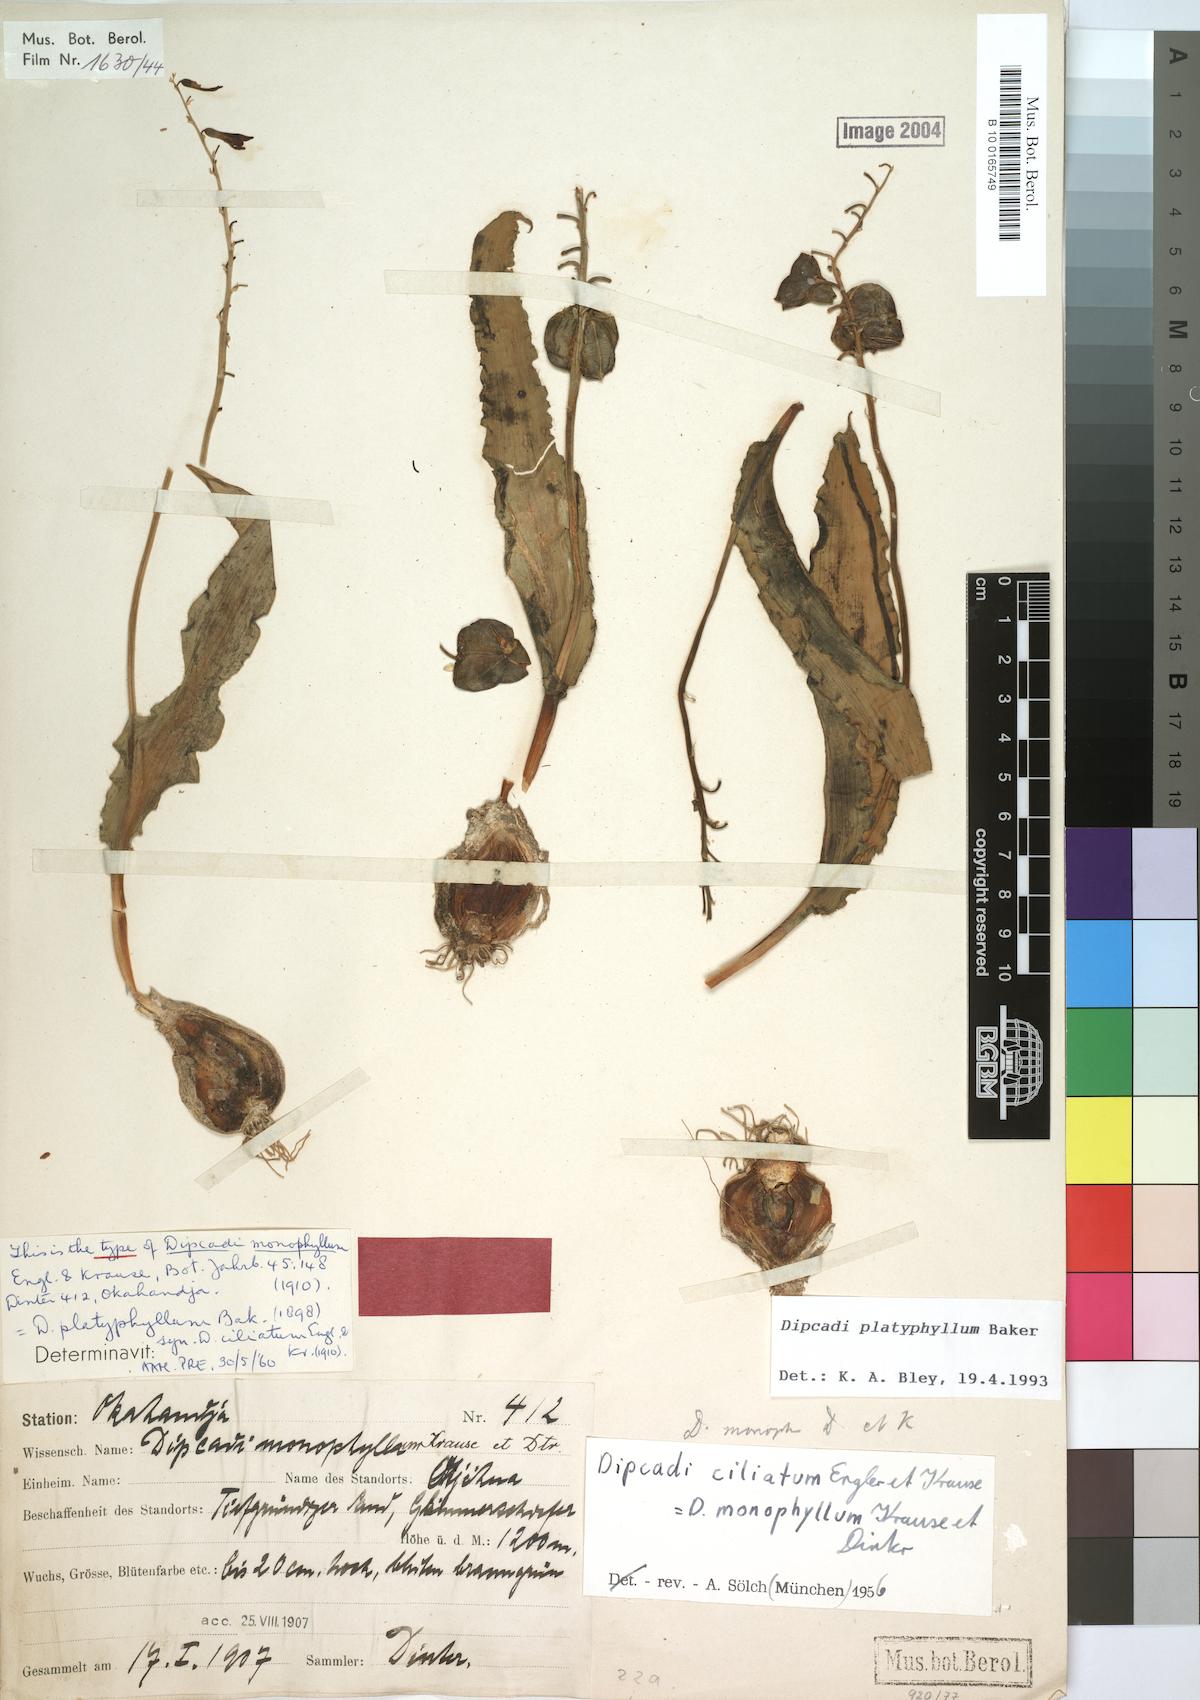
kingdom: Plantae
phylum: Tracheophyta
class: Liliopsida
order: Asparagales
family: Asparagaceae
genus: Dipcadi
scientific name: Dipcadi platyphyllum
